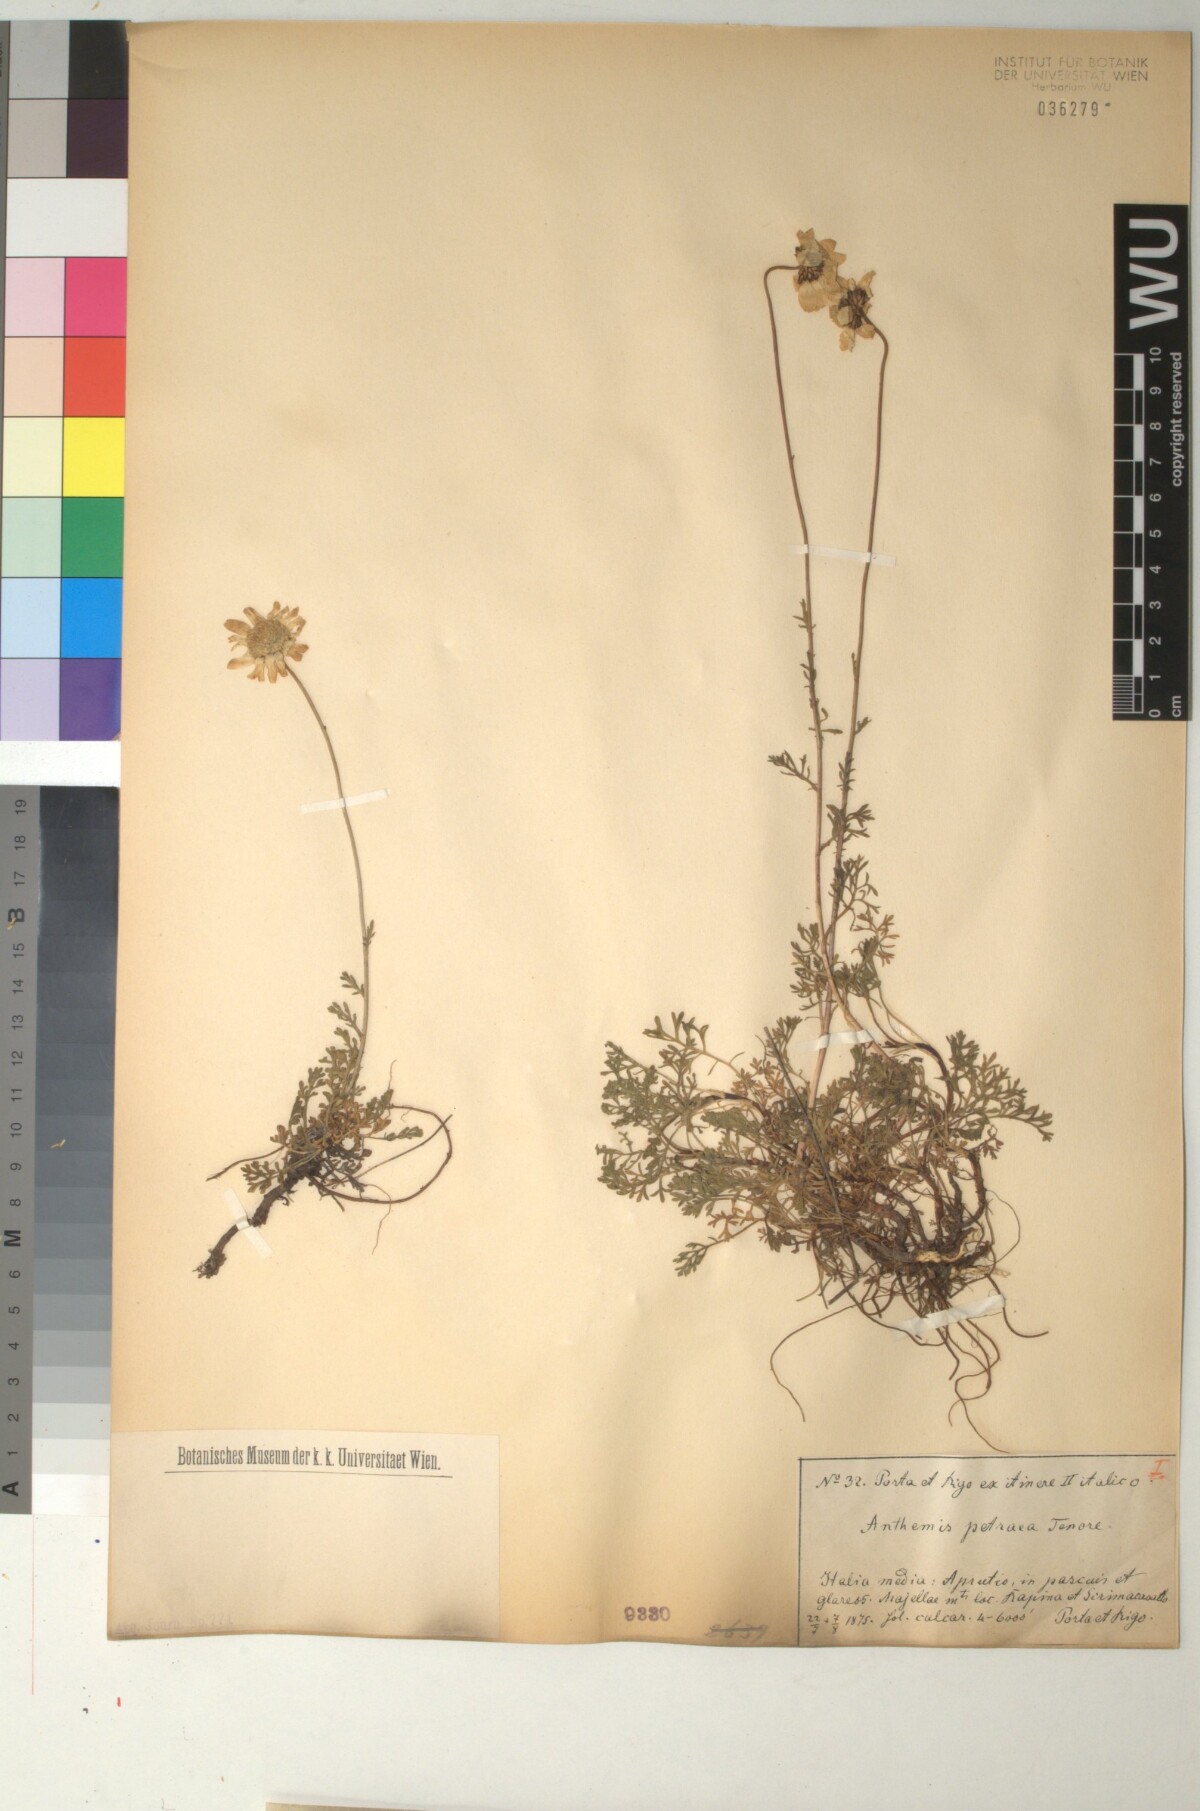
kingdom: Plantae
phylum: Tracheophyta
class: Magnoliopsida
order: Asterales
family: Asteraceae
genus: Anthemis
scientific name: Anthemis cretica
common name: Mountain dog-daisy
